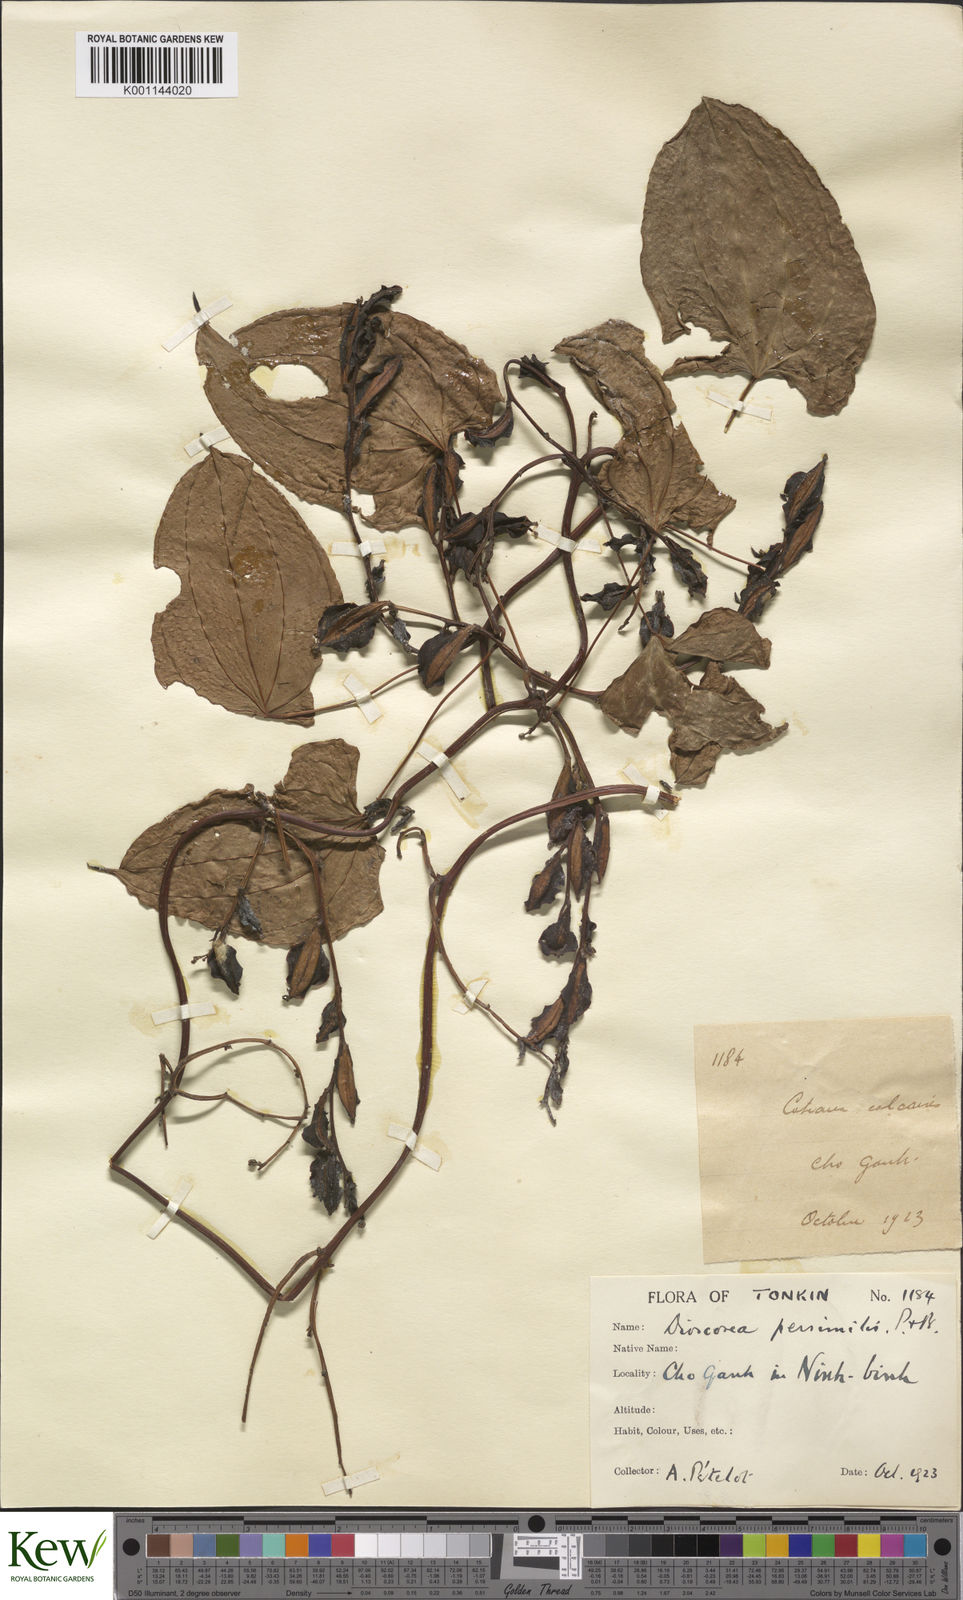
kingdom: Plantae
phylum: Tracheophyta
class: Liliopsida
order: Dioscoreales
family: Dioscoreaceae
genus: Dioscorea
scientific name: Dioscorea hamiltonii
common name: Mountain yam
